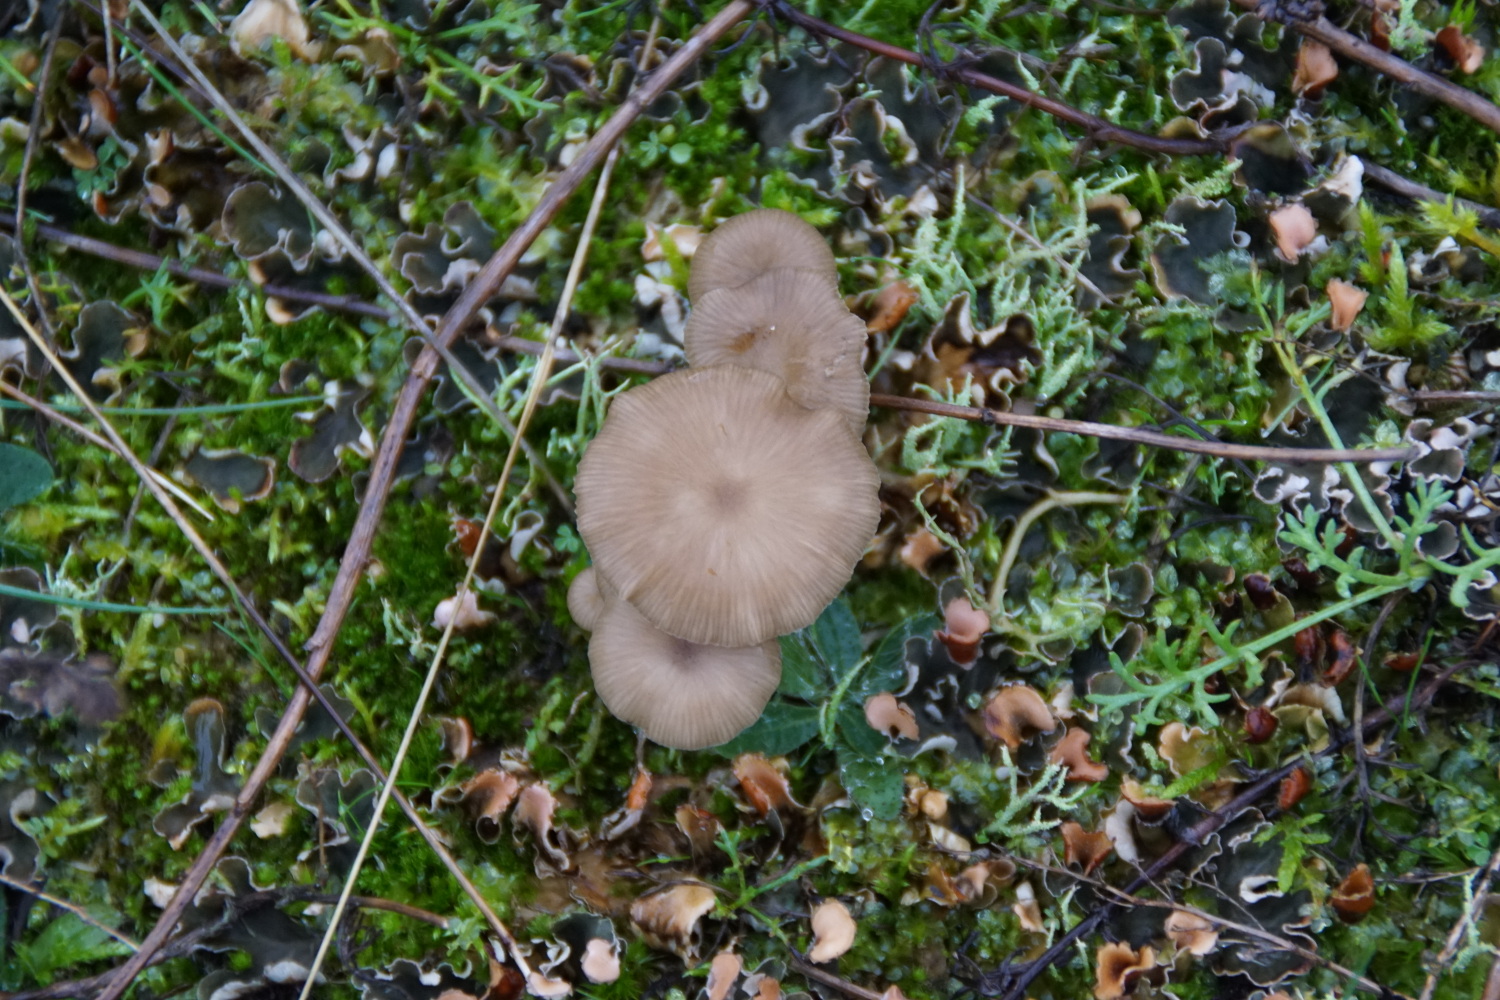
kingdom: Fungi
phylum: Basidiomycota
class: Agaricomycetes
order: Agaricales
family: Tricholomataceae
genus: Gamundia
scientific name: Gamundia xerophila
